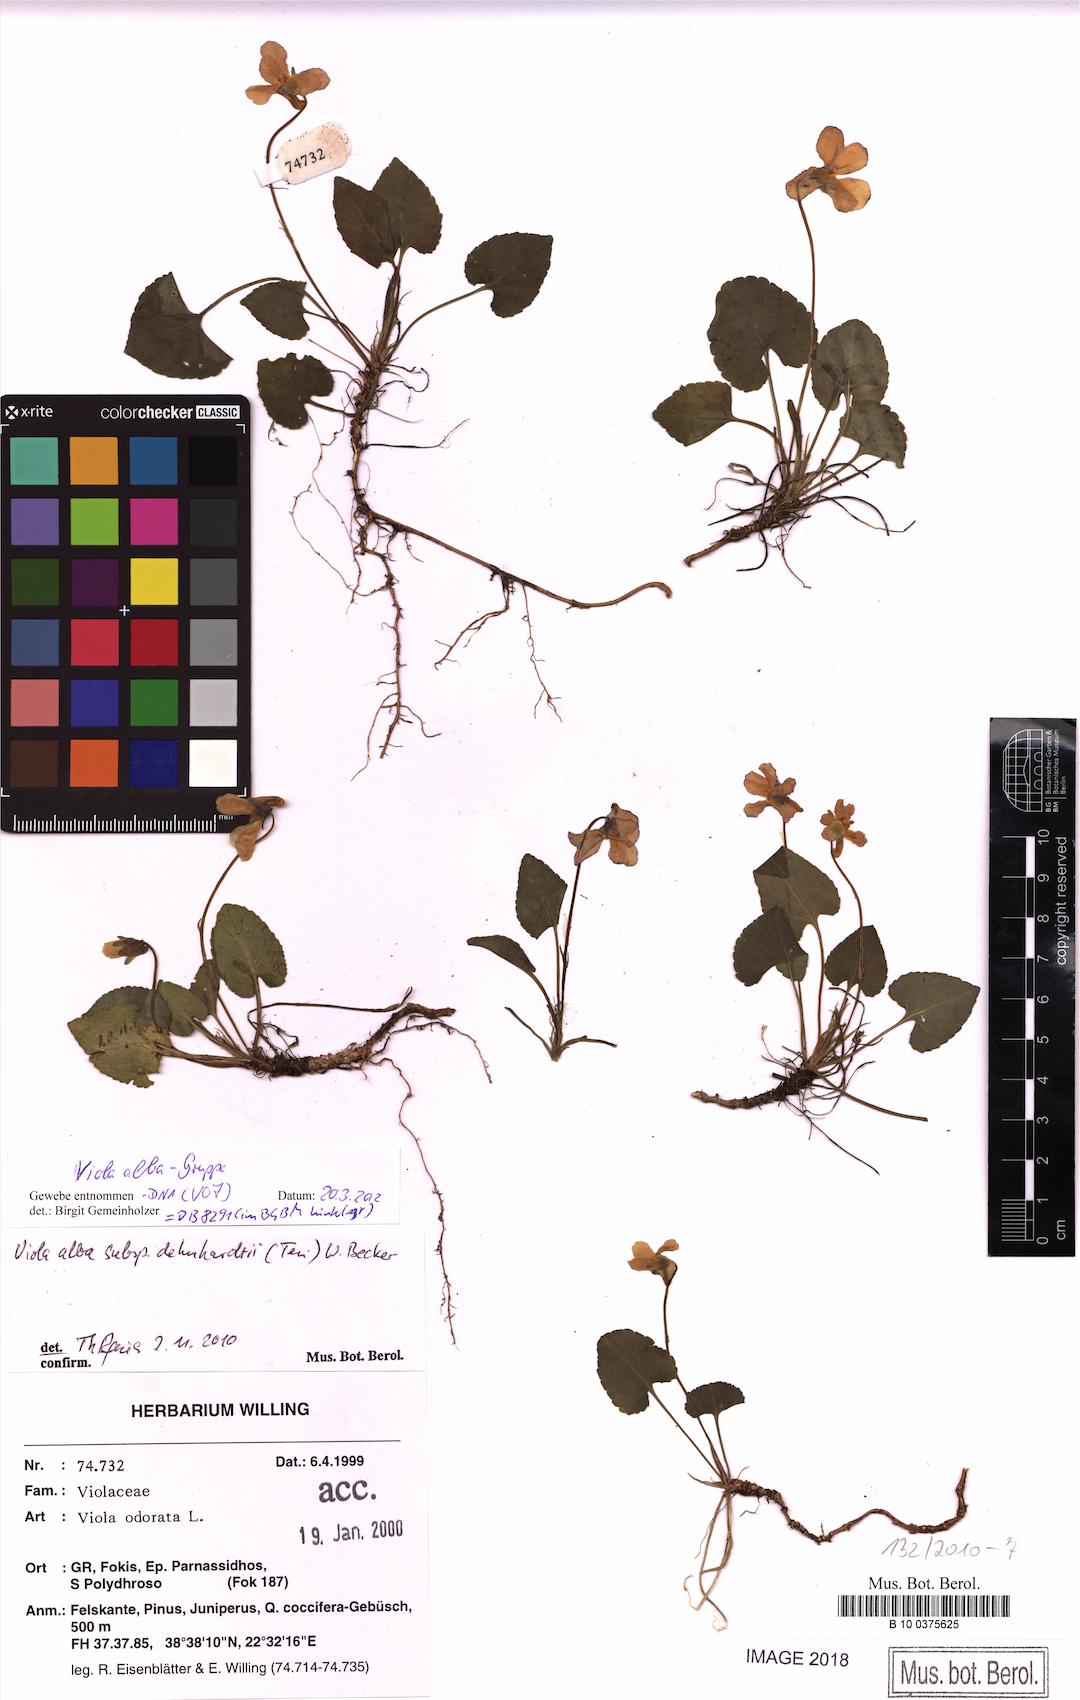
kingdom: Plantae
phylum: Tracheophyta
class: Magnoliopsida
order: Malpighiales
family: Violaceae
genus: Viola
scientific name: Viola alba
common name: White violet
